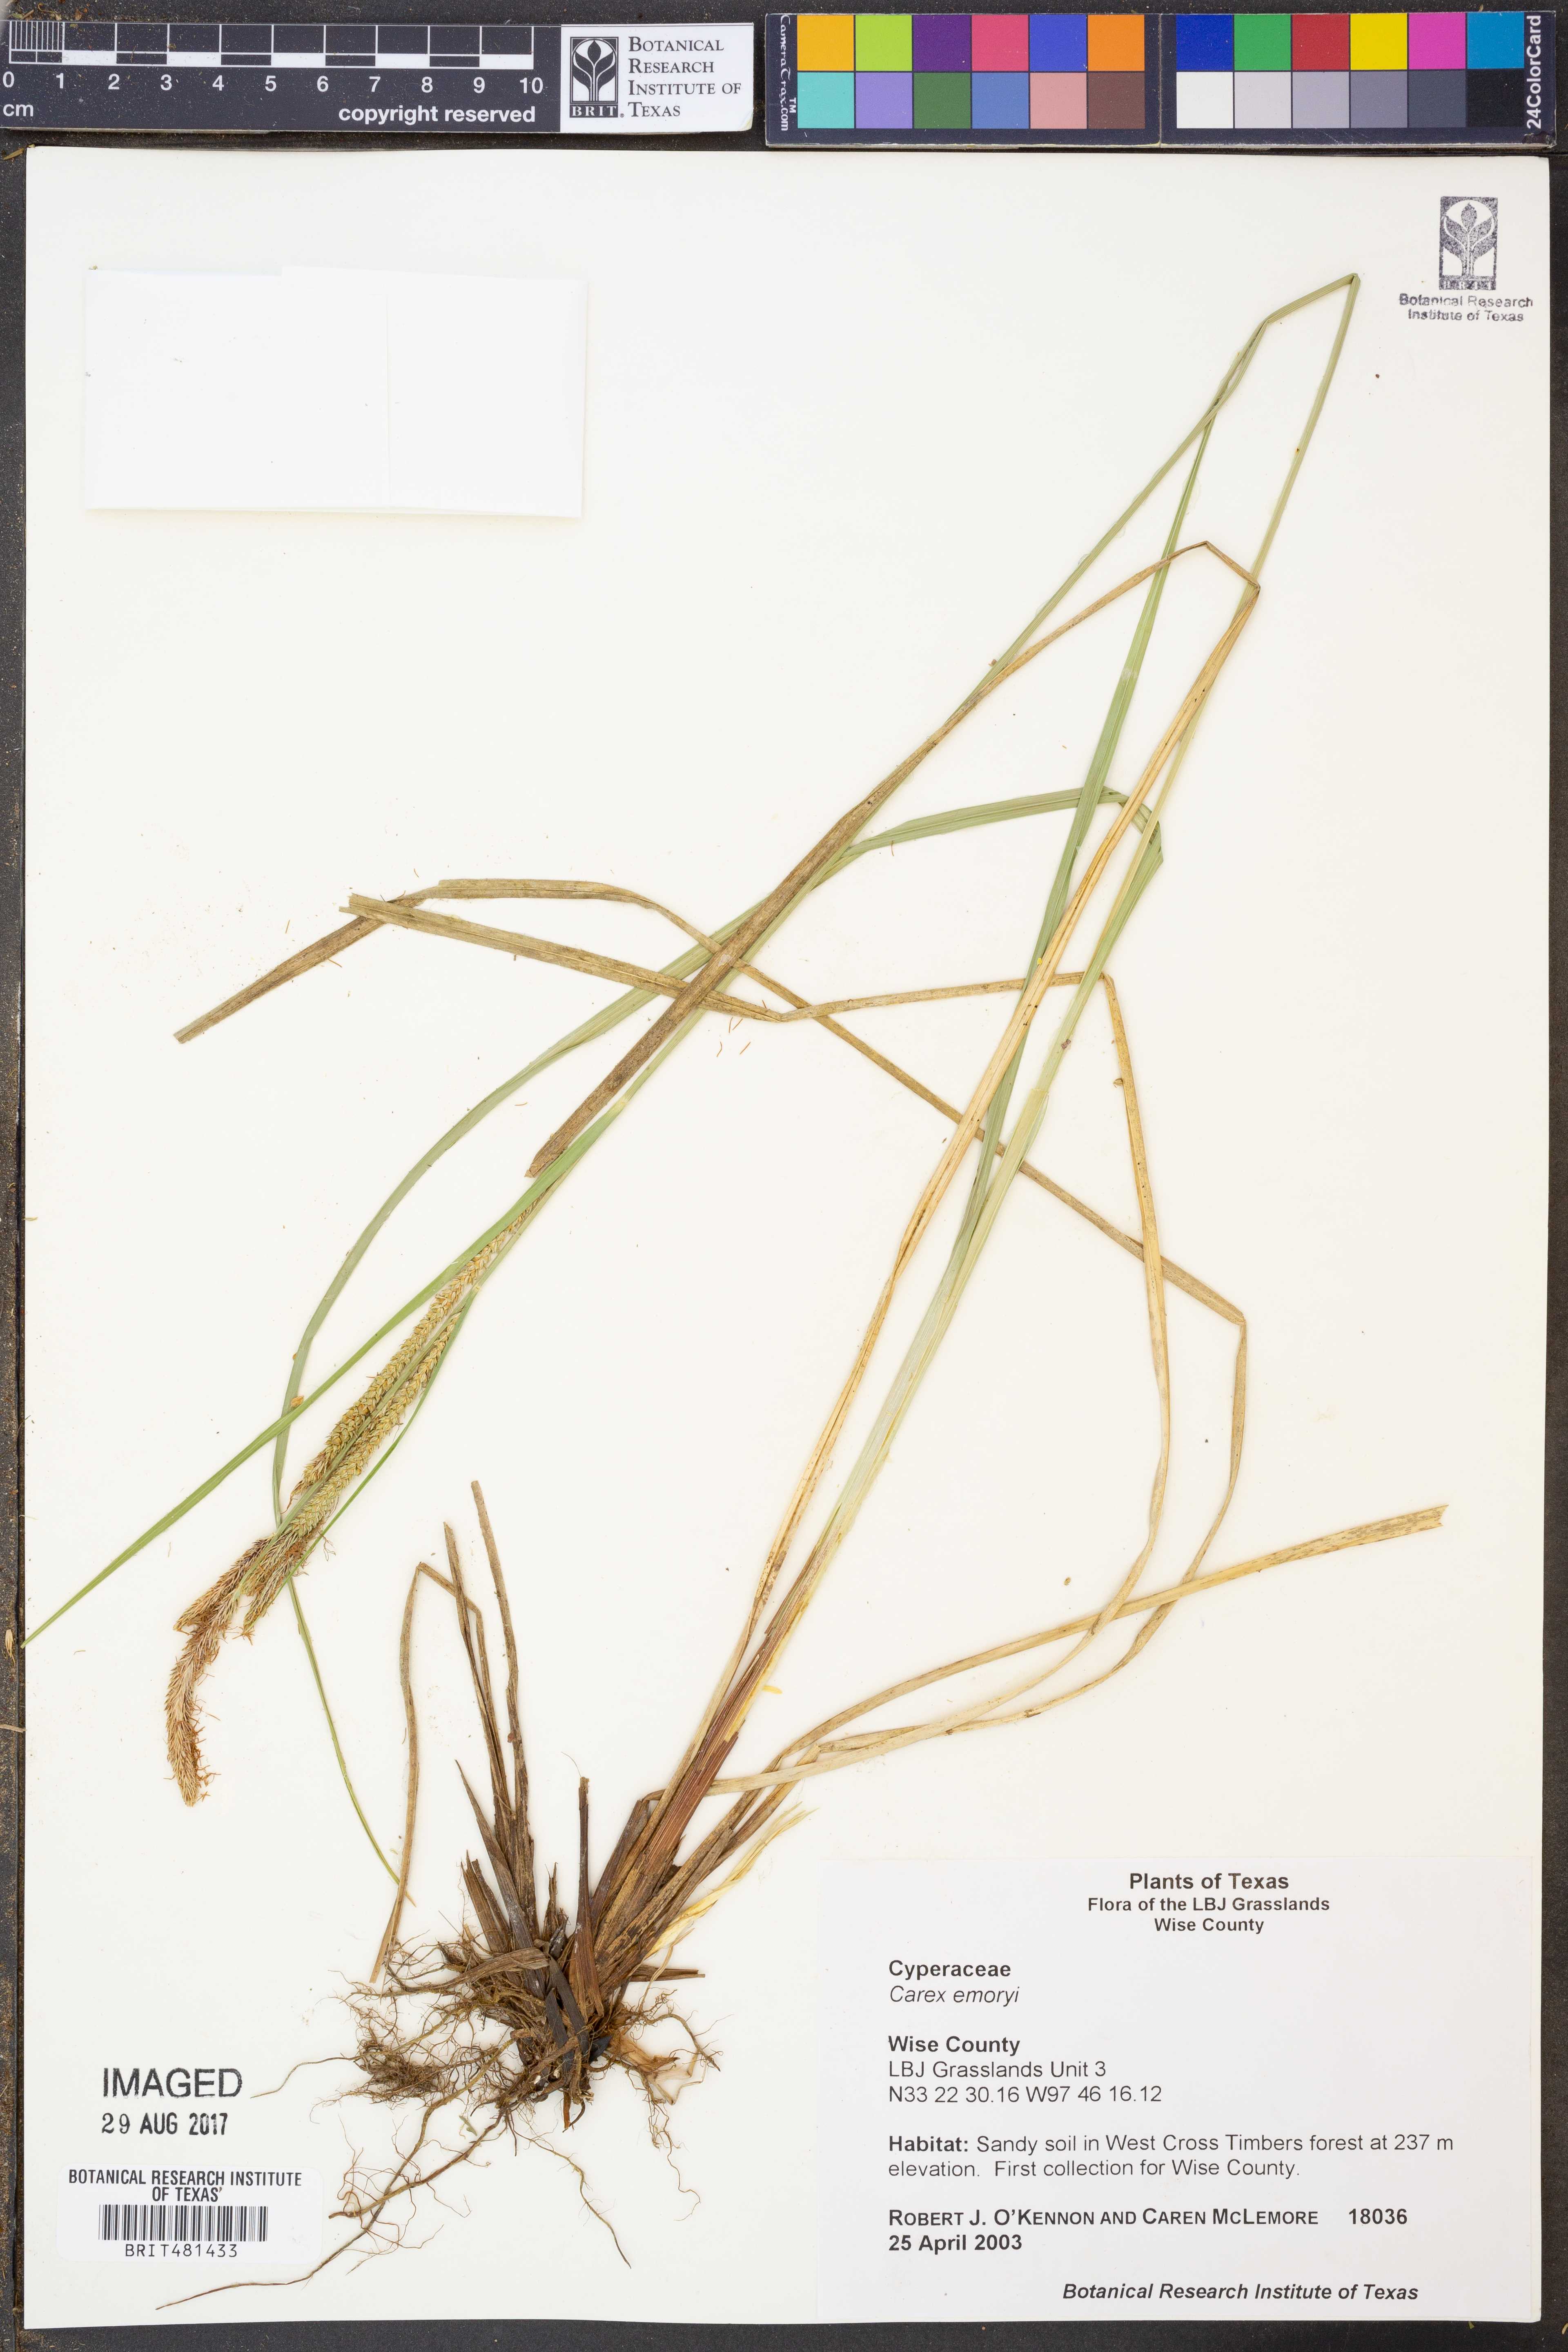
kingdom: Plantae
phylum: Tracheophyta
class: Liliopsida
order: Poales
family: Cyperaceae
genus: Carex
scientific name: Carex emoryi
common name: Emory's sedge
